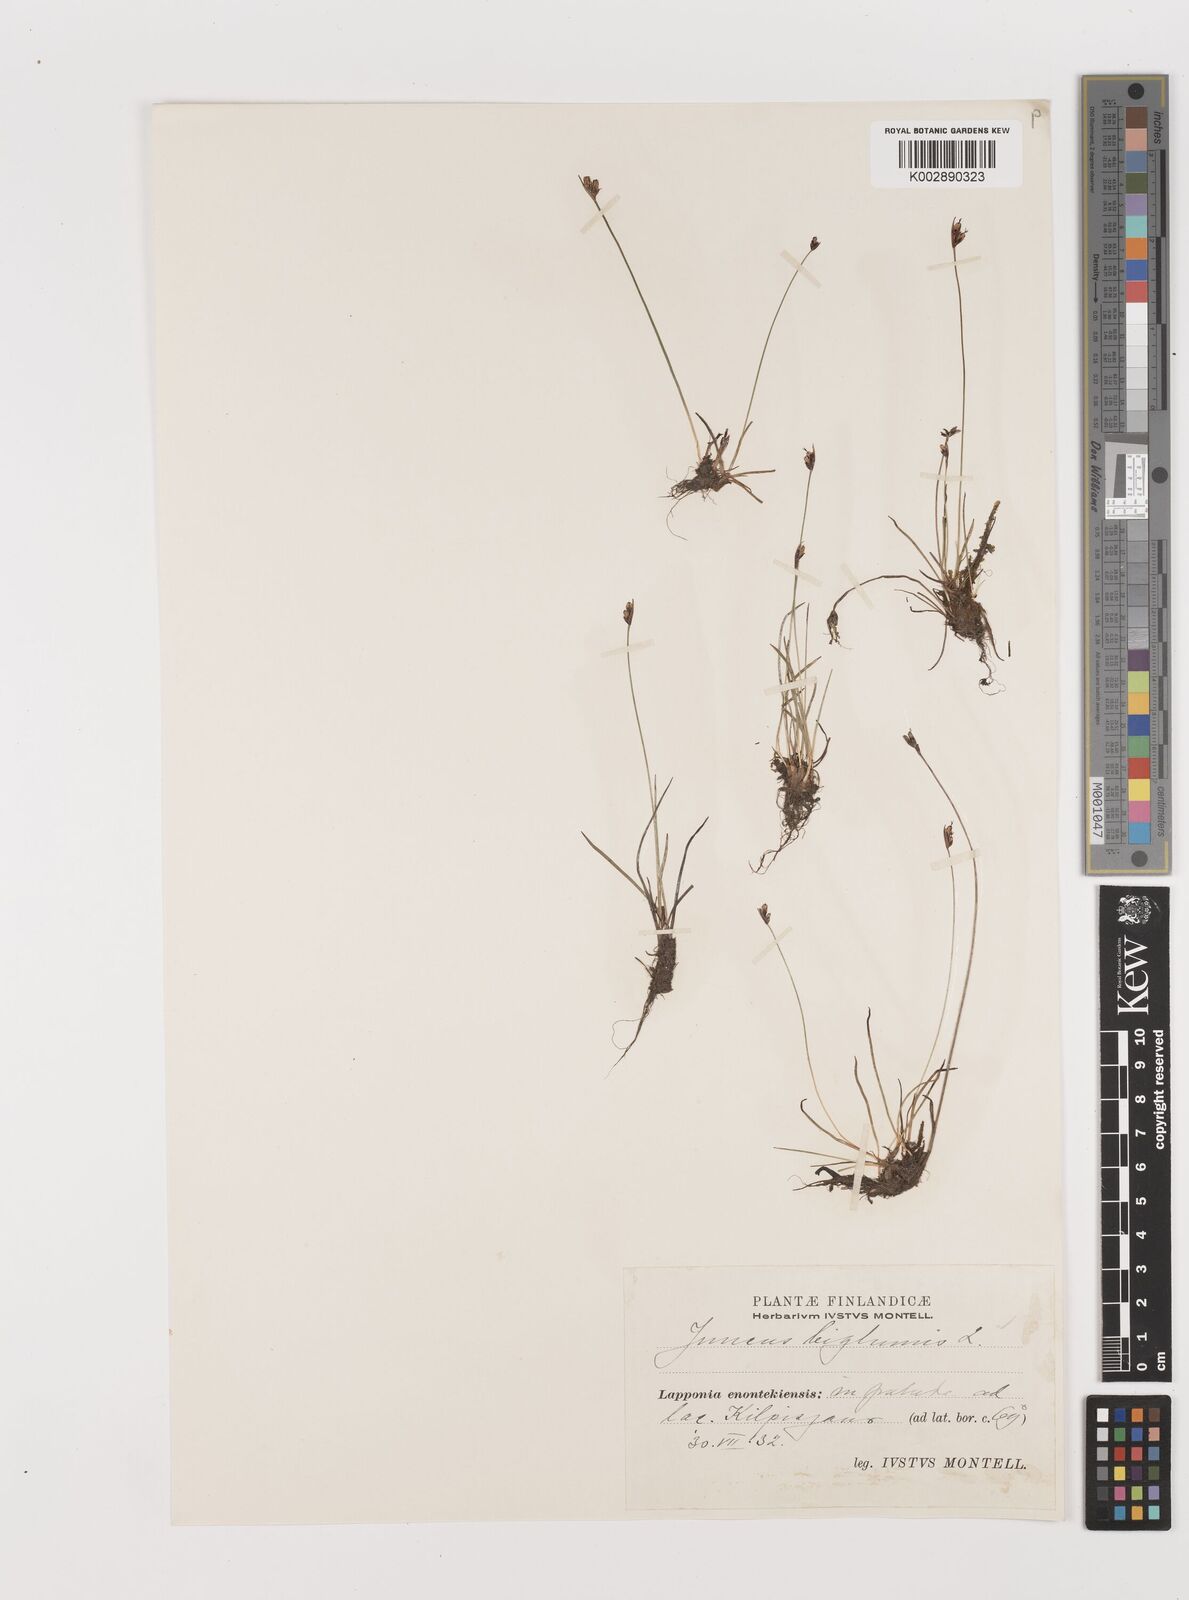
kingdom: Plantae
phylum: Tracheophyta
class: Liliopsida
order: Poales
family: Juncaceae
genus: Juncus
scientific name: Juncus biglumis
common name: Two-flowered rush
